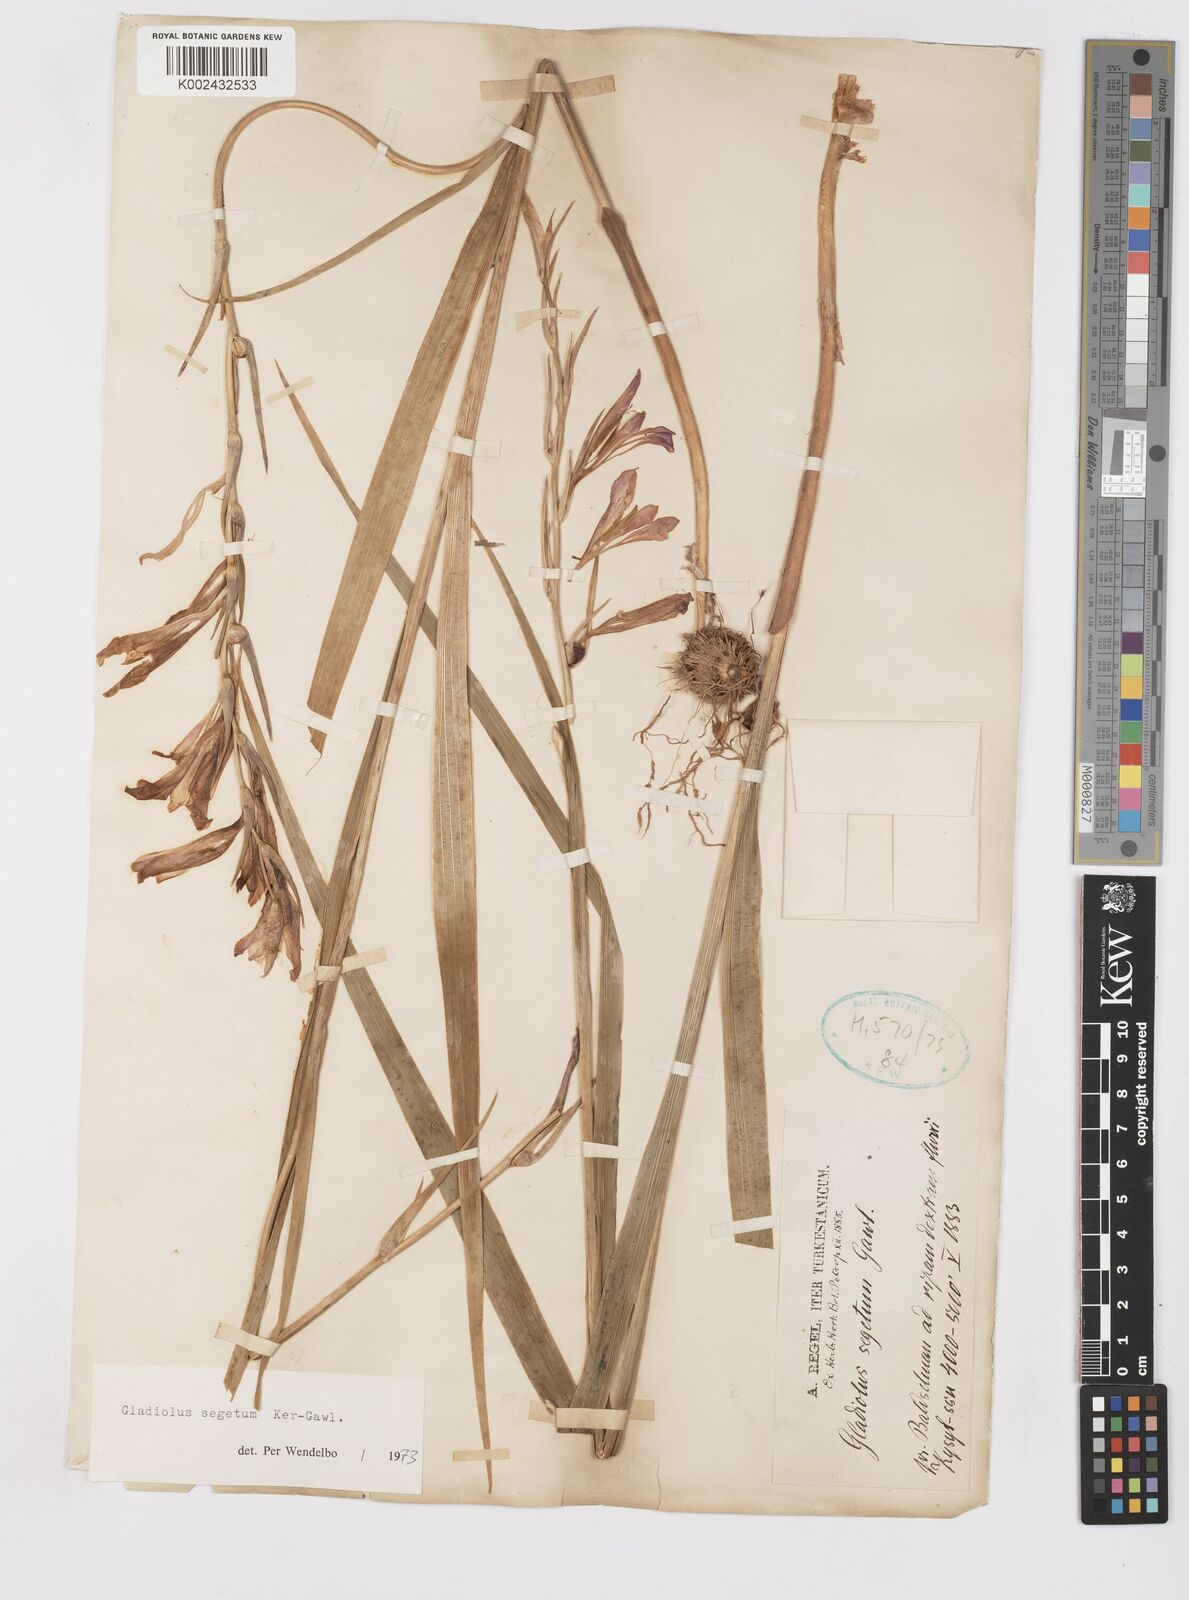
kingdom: Plantae
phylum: Tracheophyta
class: Liliopsida
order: Asparagales
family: Iridaceae
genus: Gladiolus
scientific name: Gladiolus italicus
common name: Field gladiolus
